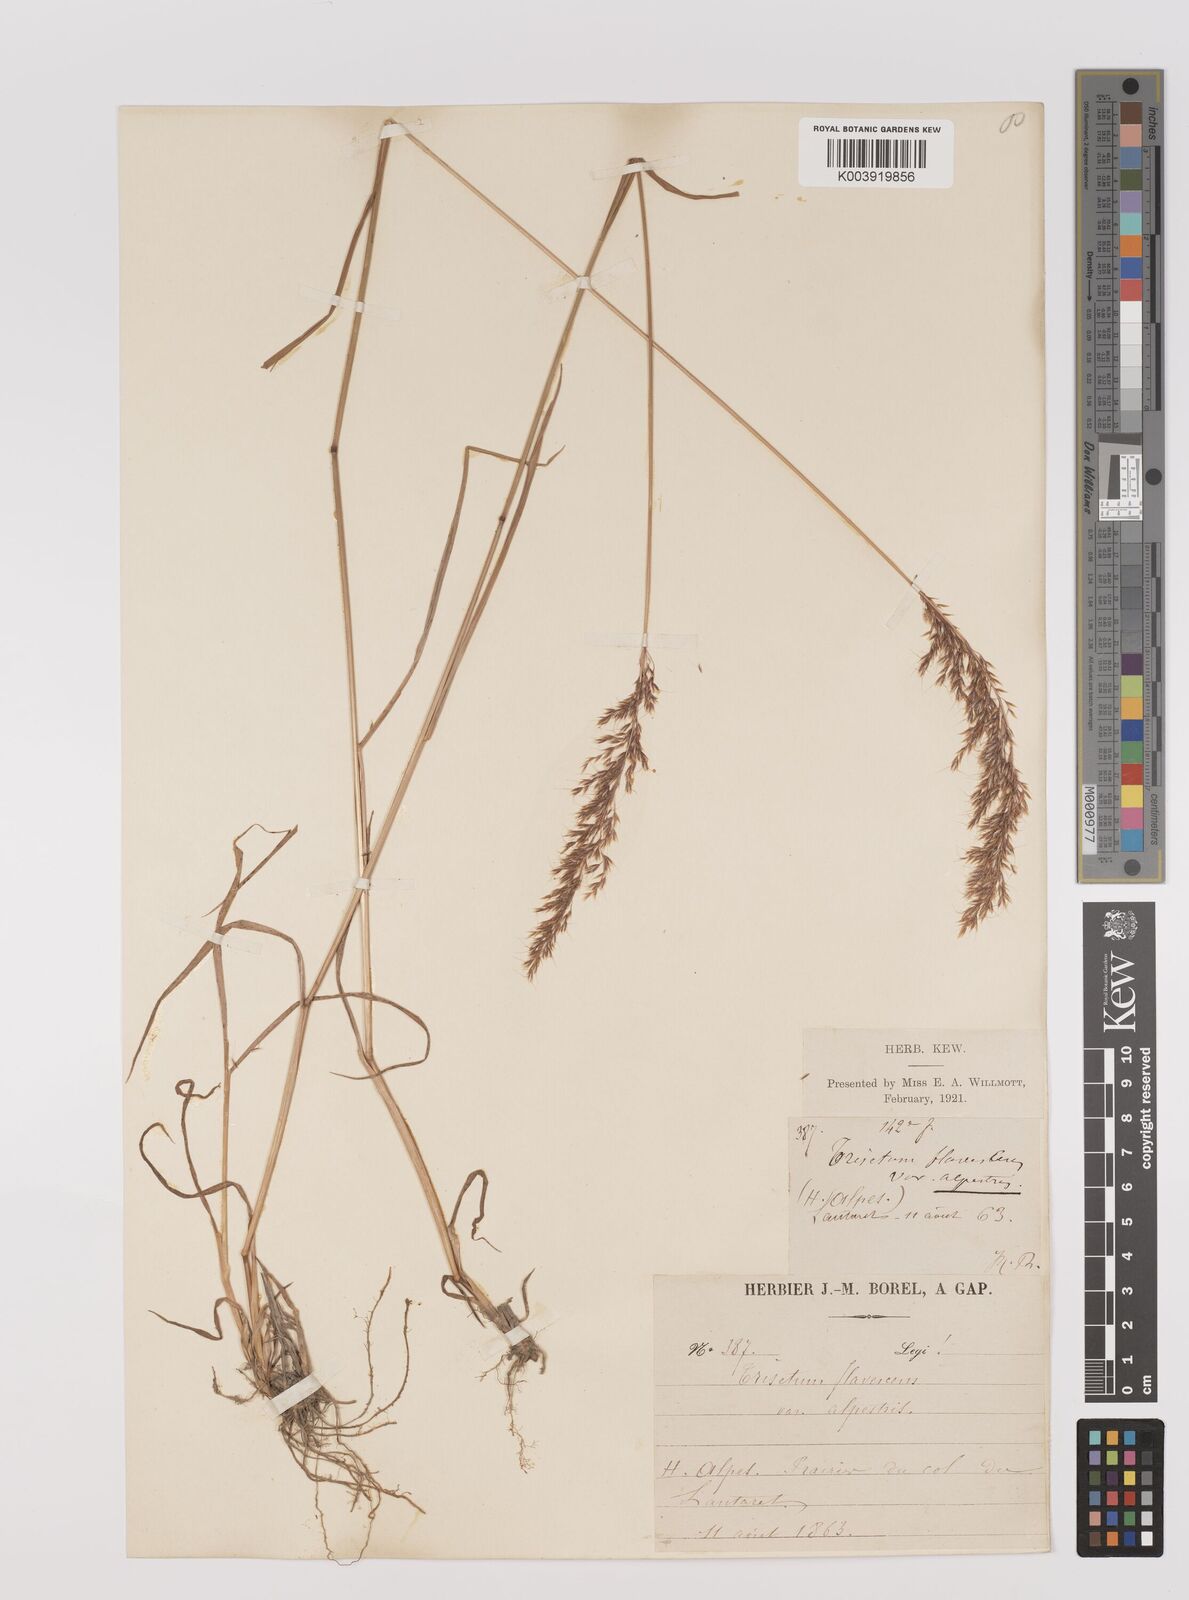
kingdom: Plantae
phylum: Tracheophyta
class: Liliopsida
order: Poales
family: Poaceae
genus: Trisetum
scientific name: Trisetum flavescens
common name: Yellow oat-grass
